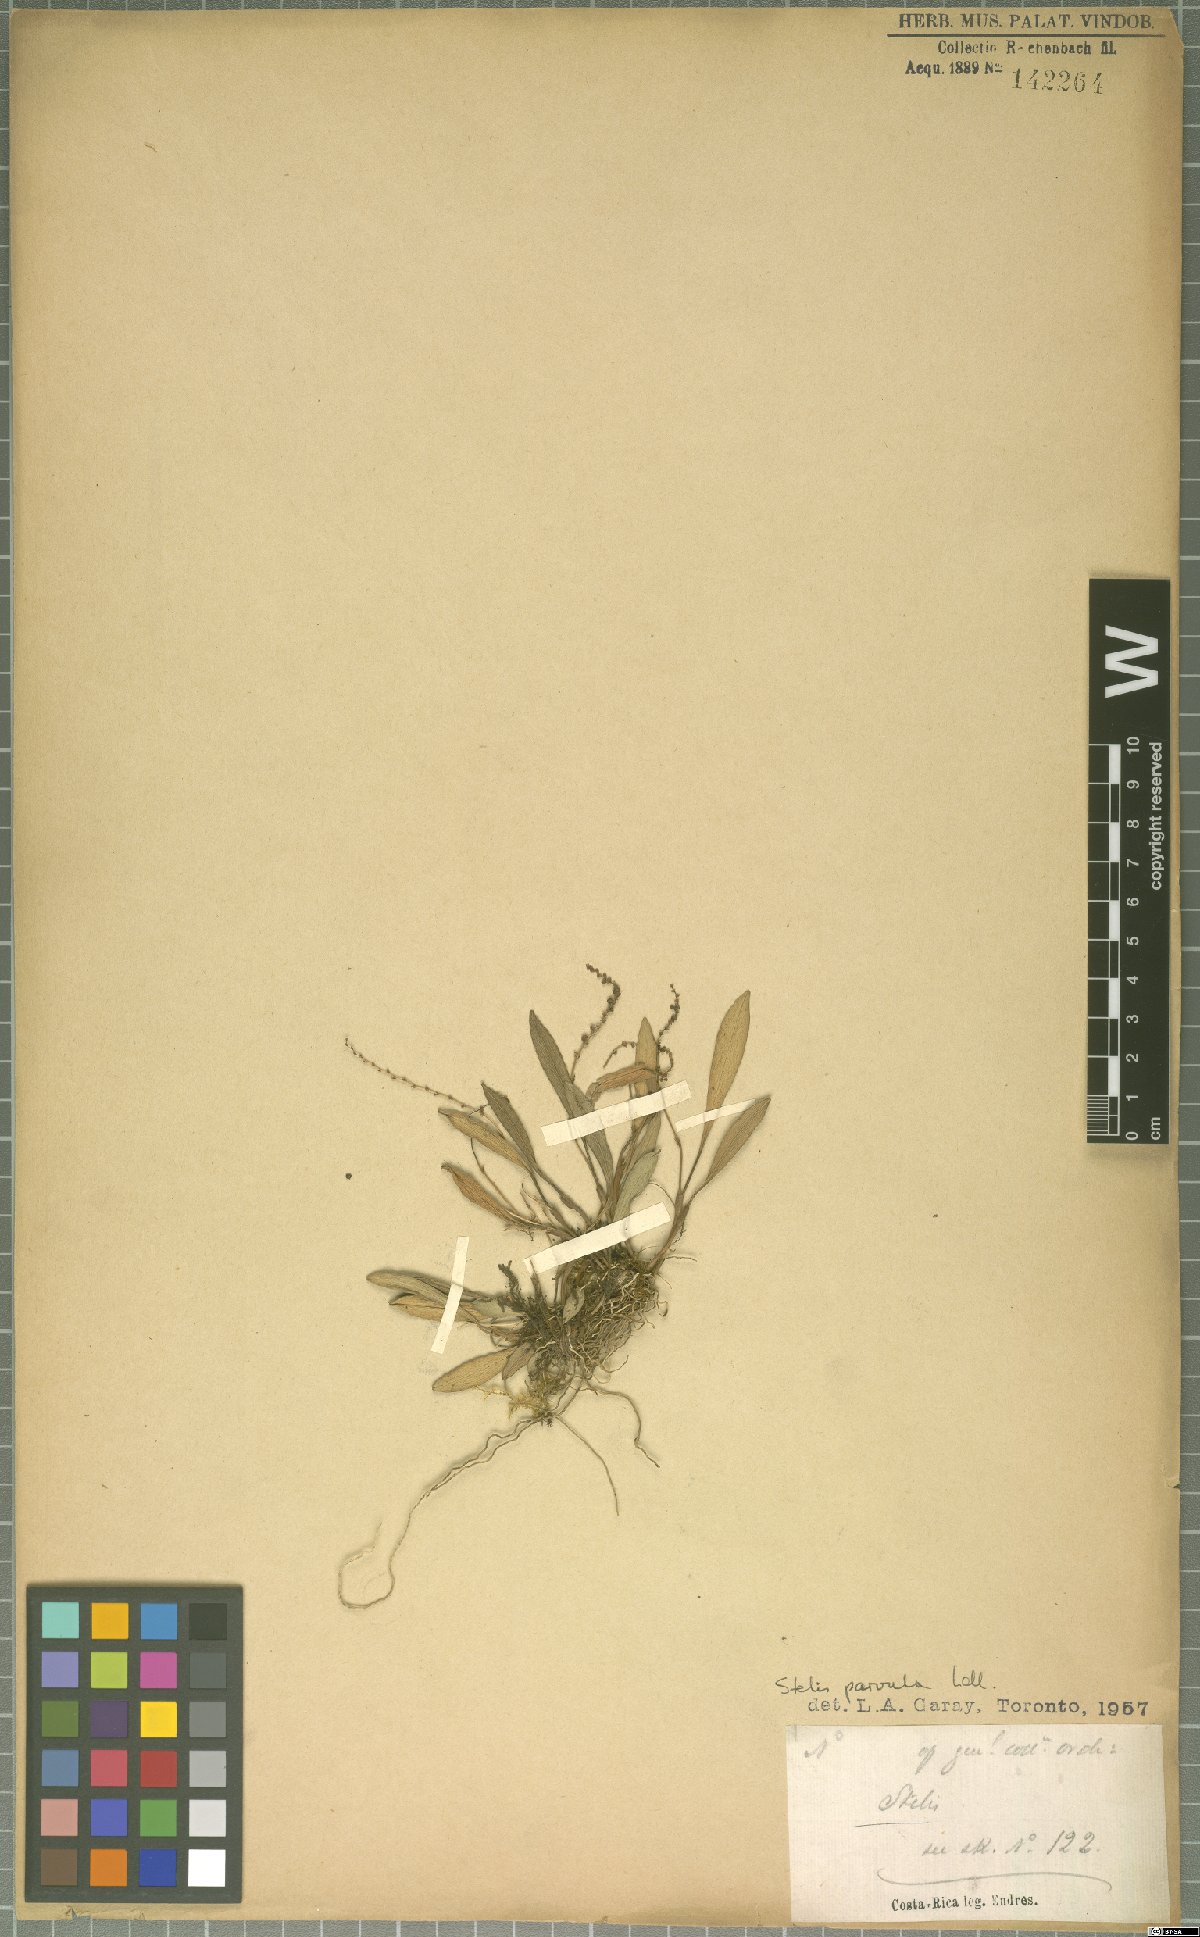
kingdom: Plantae
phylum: Tracheophyta
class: Liliopsida
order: Asparagales
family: Orchidaceae
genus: Stelis
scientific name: Stelis parvula
